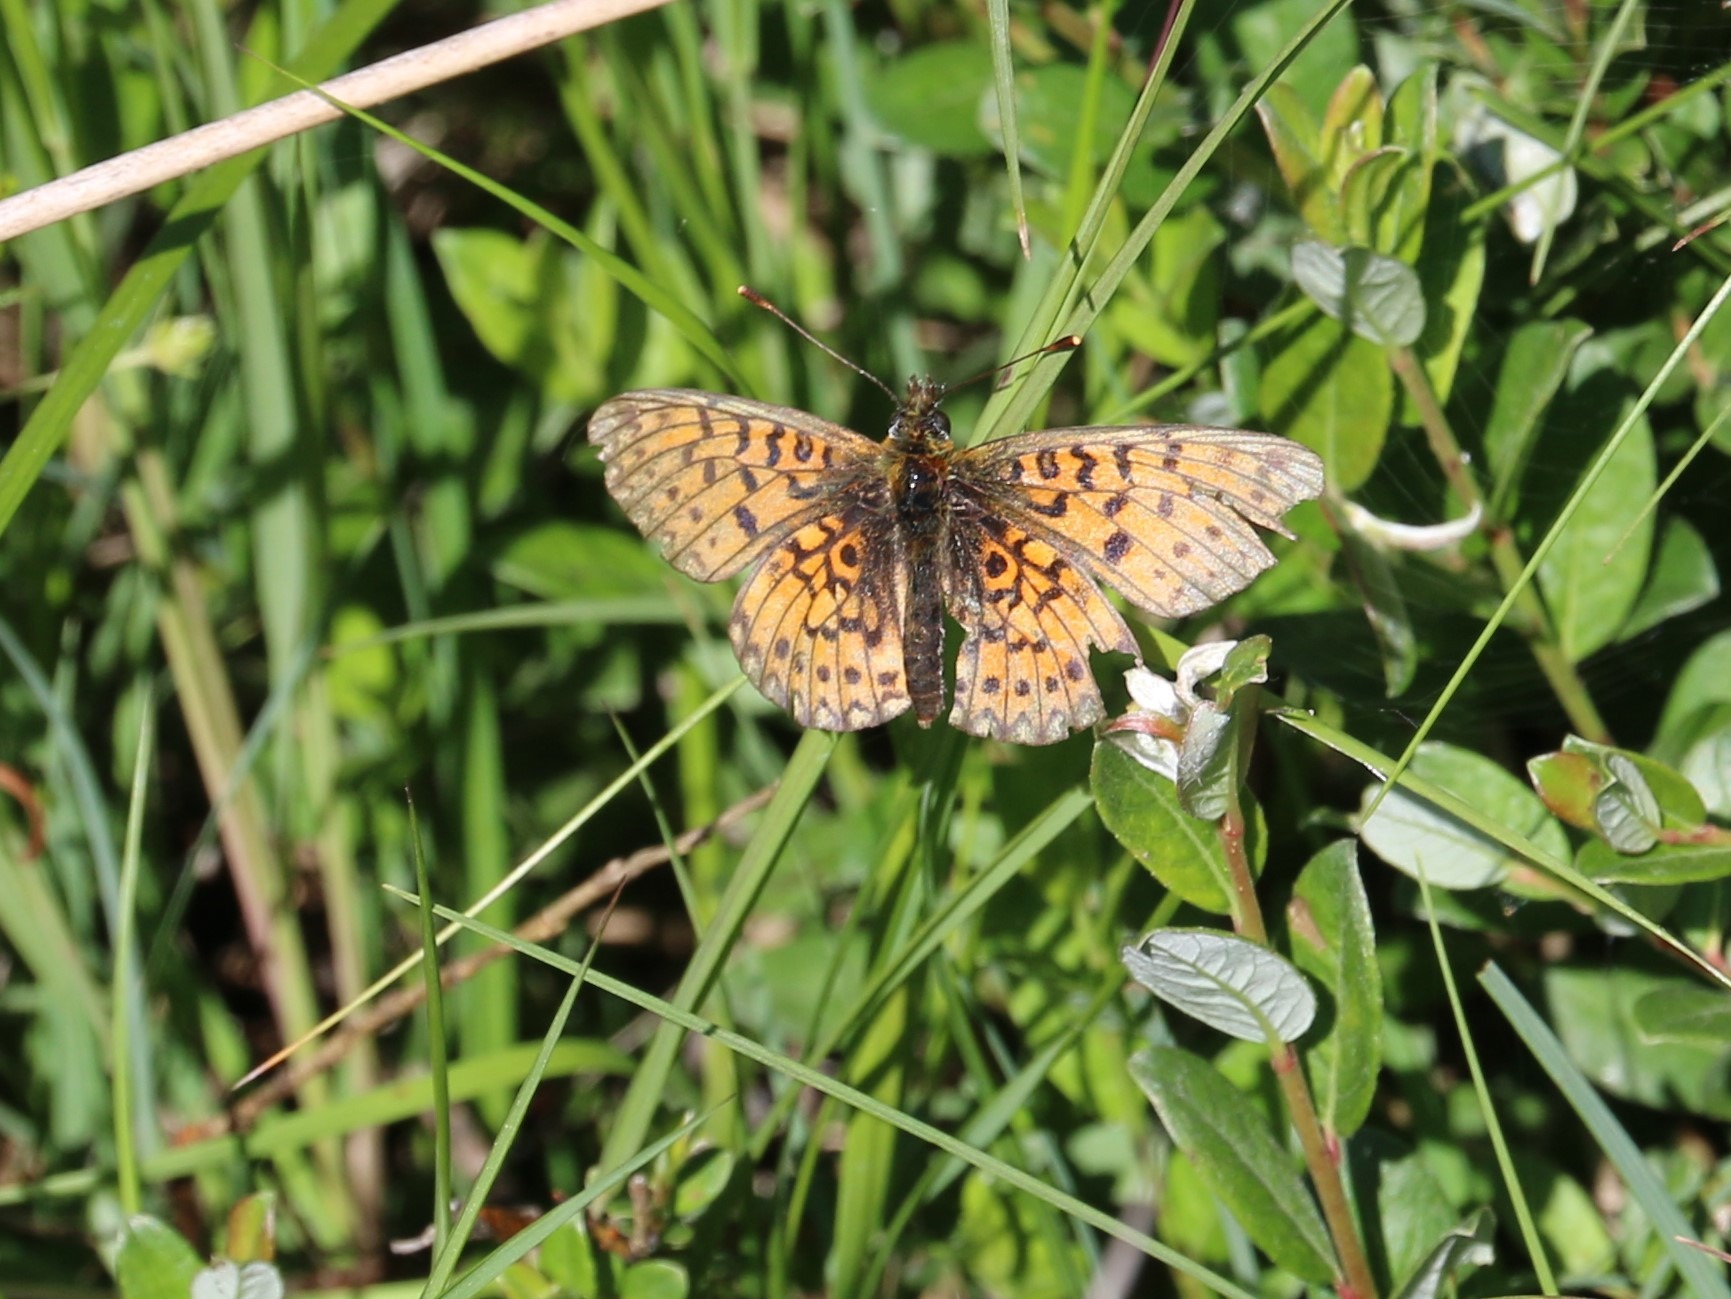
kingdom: Animalia
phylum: Arthropoda
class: Insecta
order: Lepidoptera
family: Nymphalidae
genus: Boloria
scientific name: Boloria selene
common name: Brunlig perlemorsommerfugl
